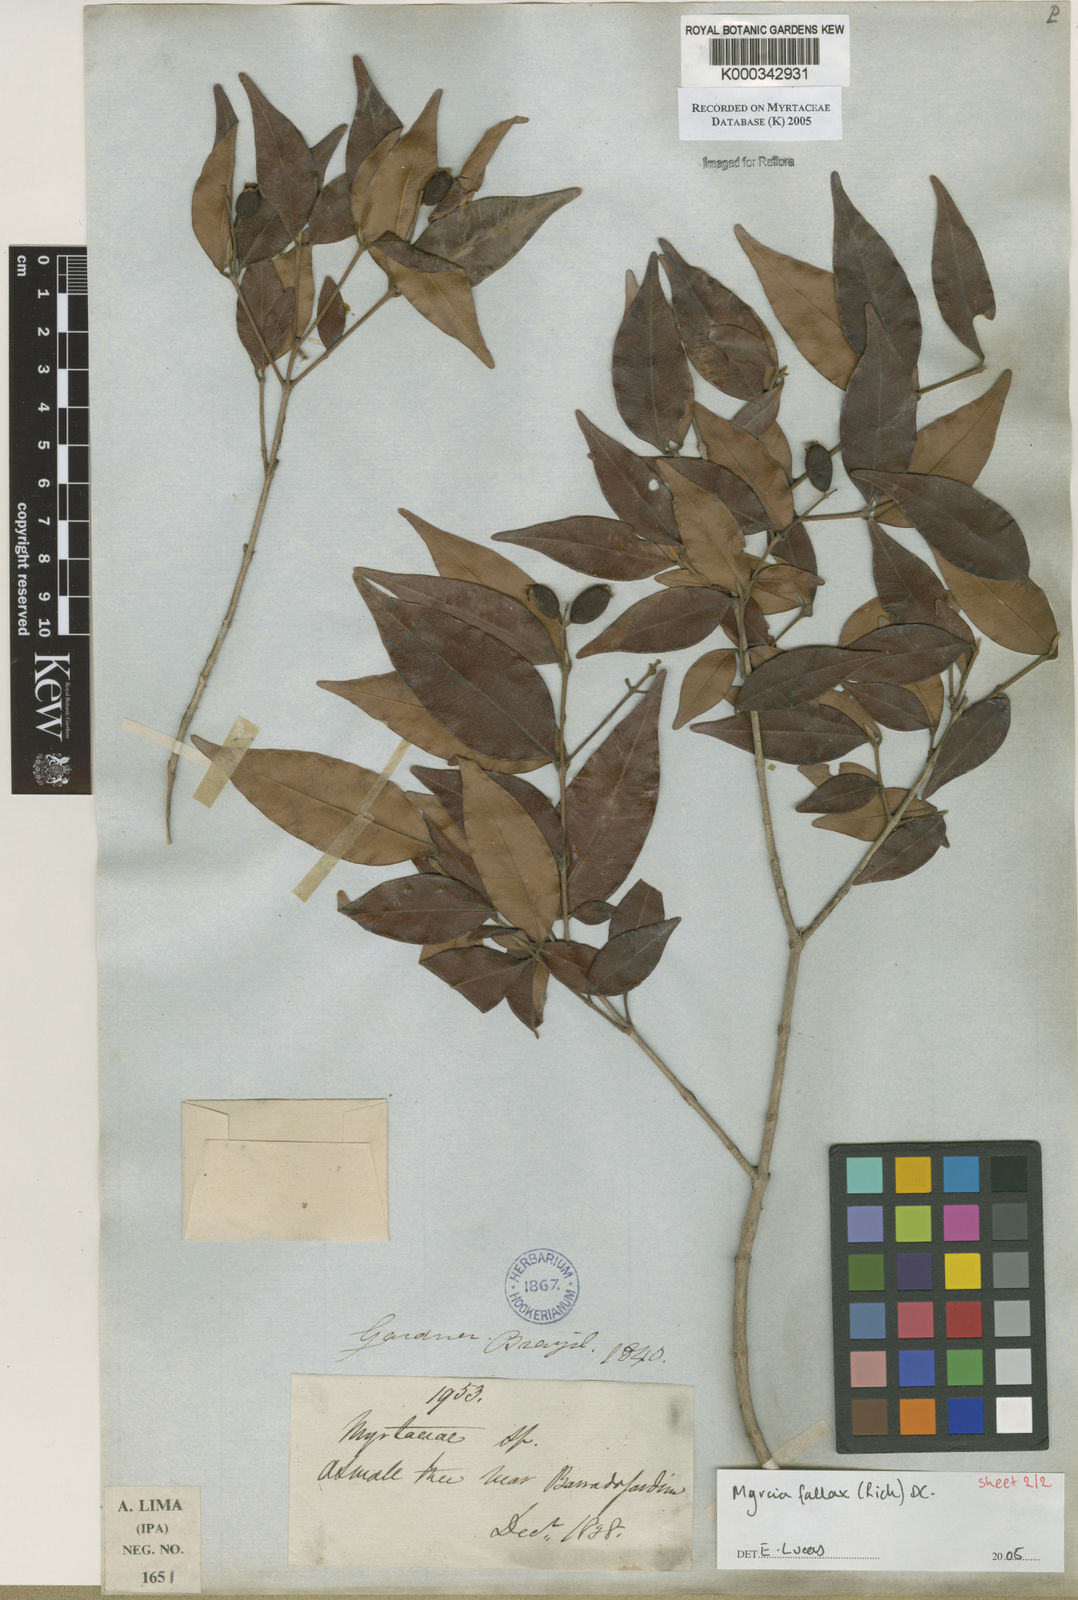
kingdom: Plantae
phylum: Tracheophyta
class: Magnoliopsida
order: Myrtales
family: Myrtaceae
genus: Myrcia
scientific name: Myrcia splendens
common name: Surinam cherry
